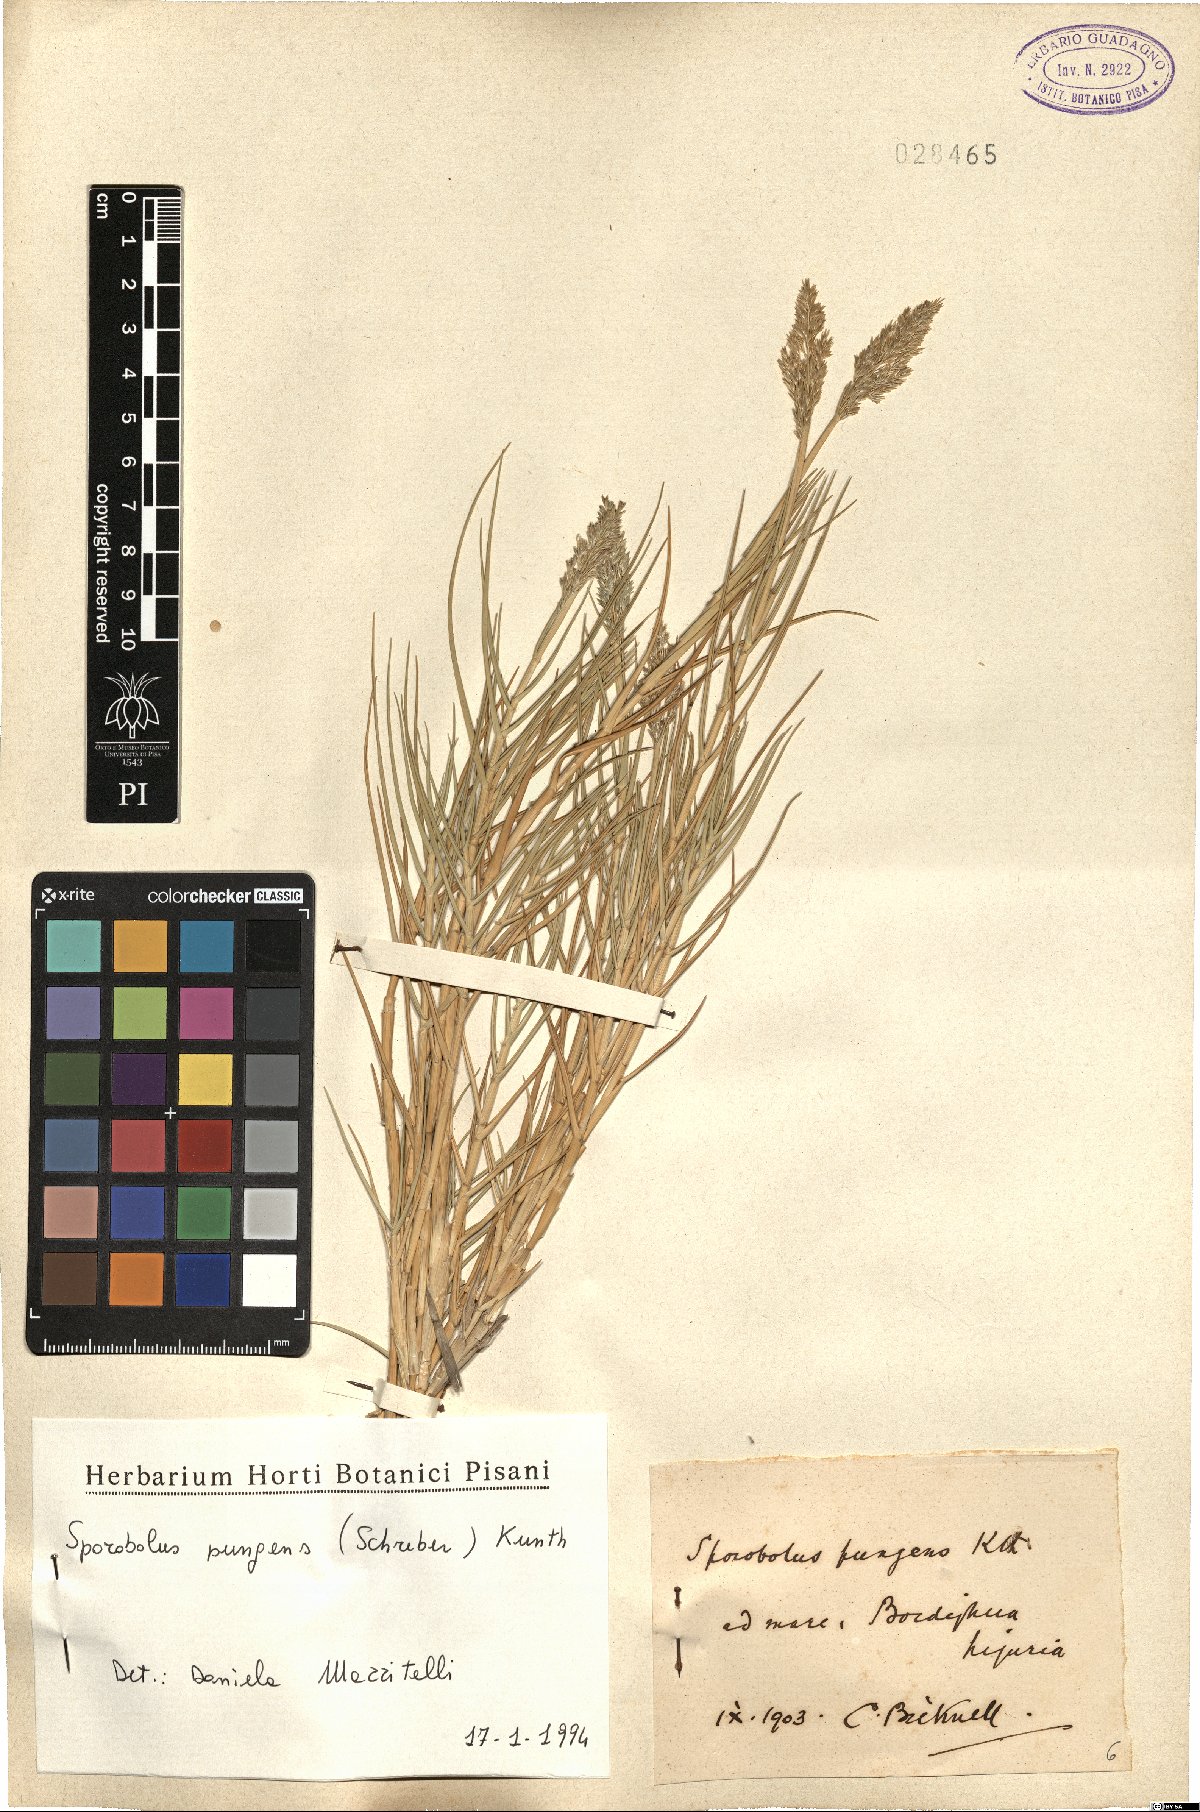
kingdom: Plantae
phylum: Tracheophyta
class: Liliopsida
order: Poales
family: Poaceae
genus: Sporobolus
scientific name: Sporobolus pungens
